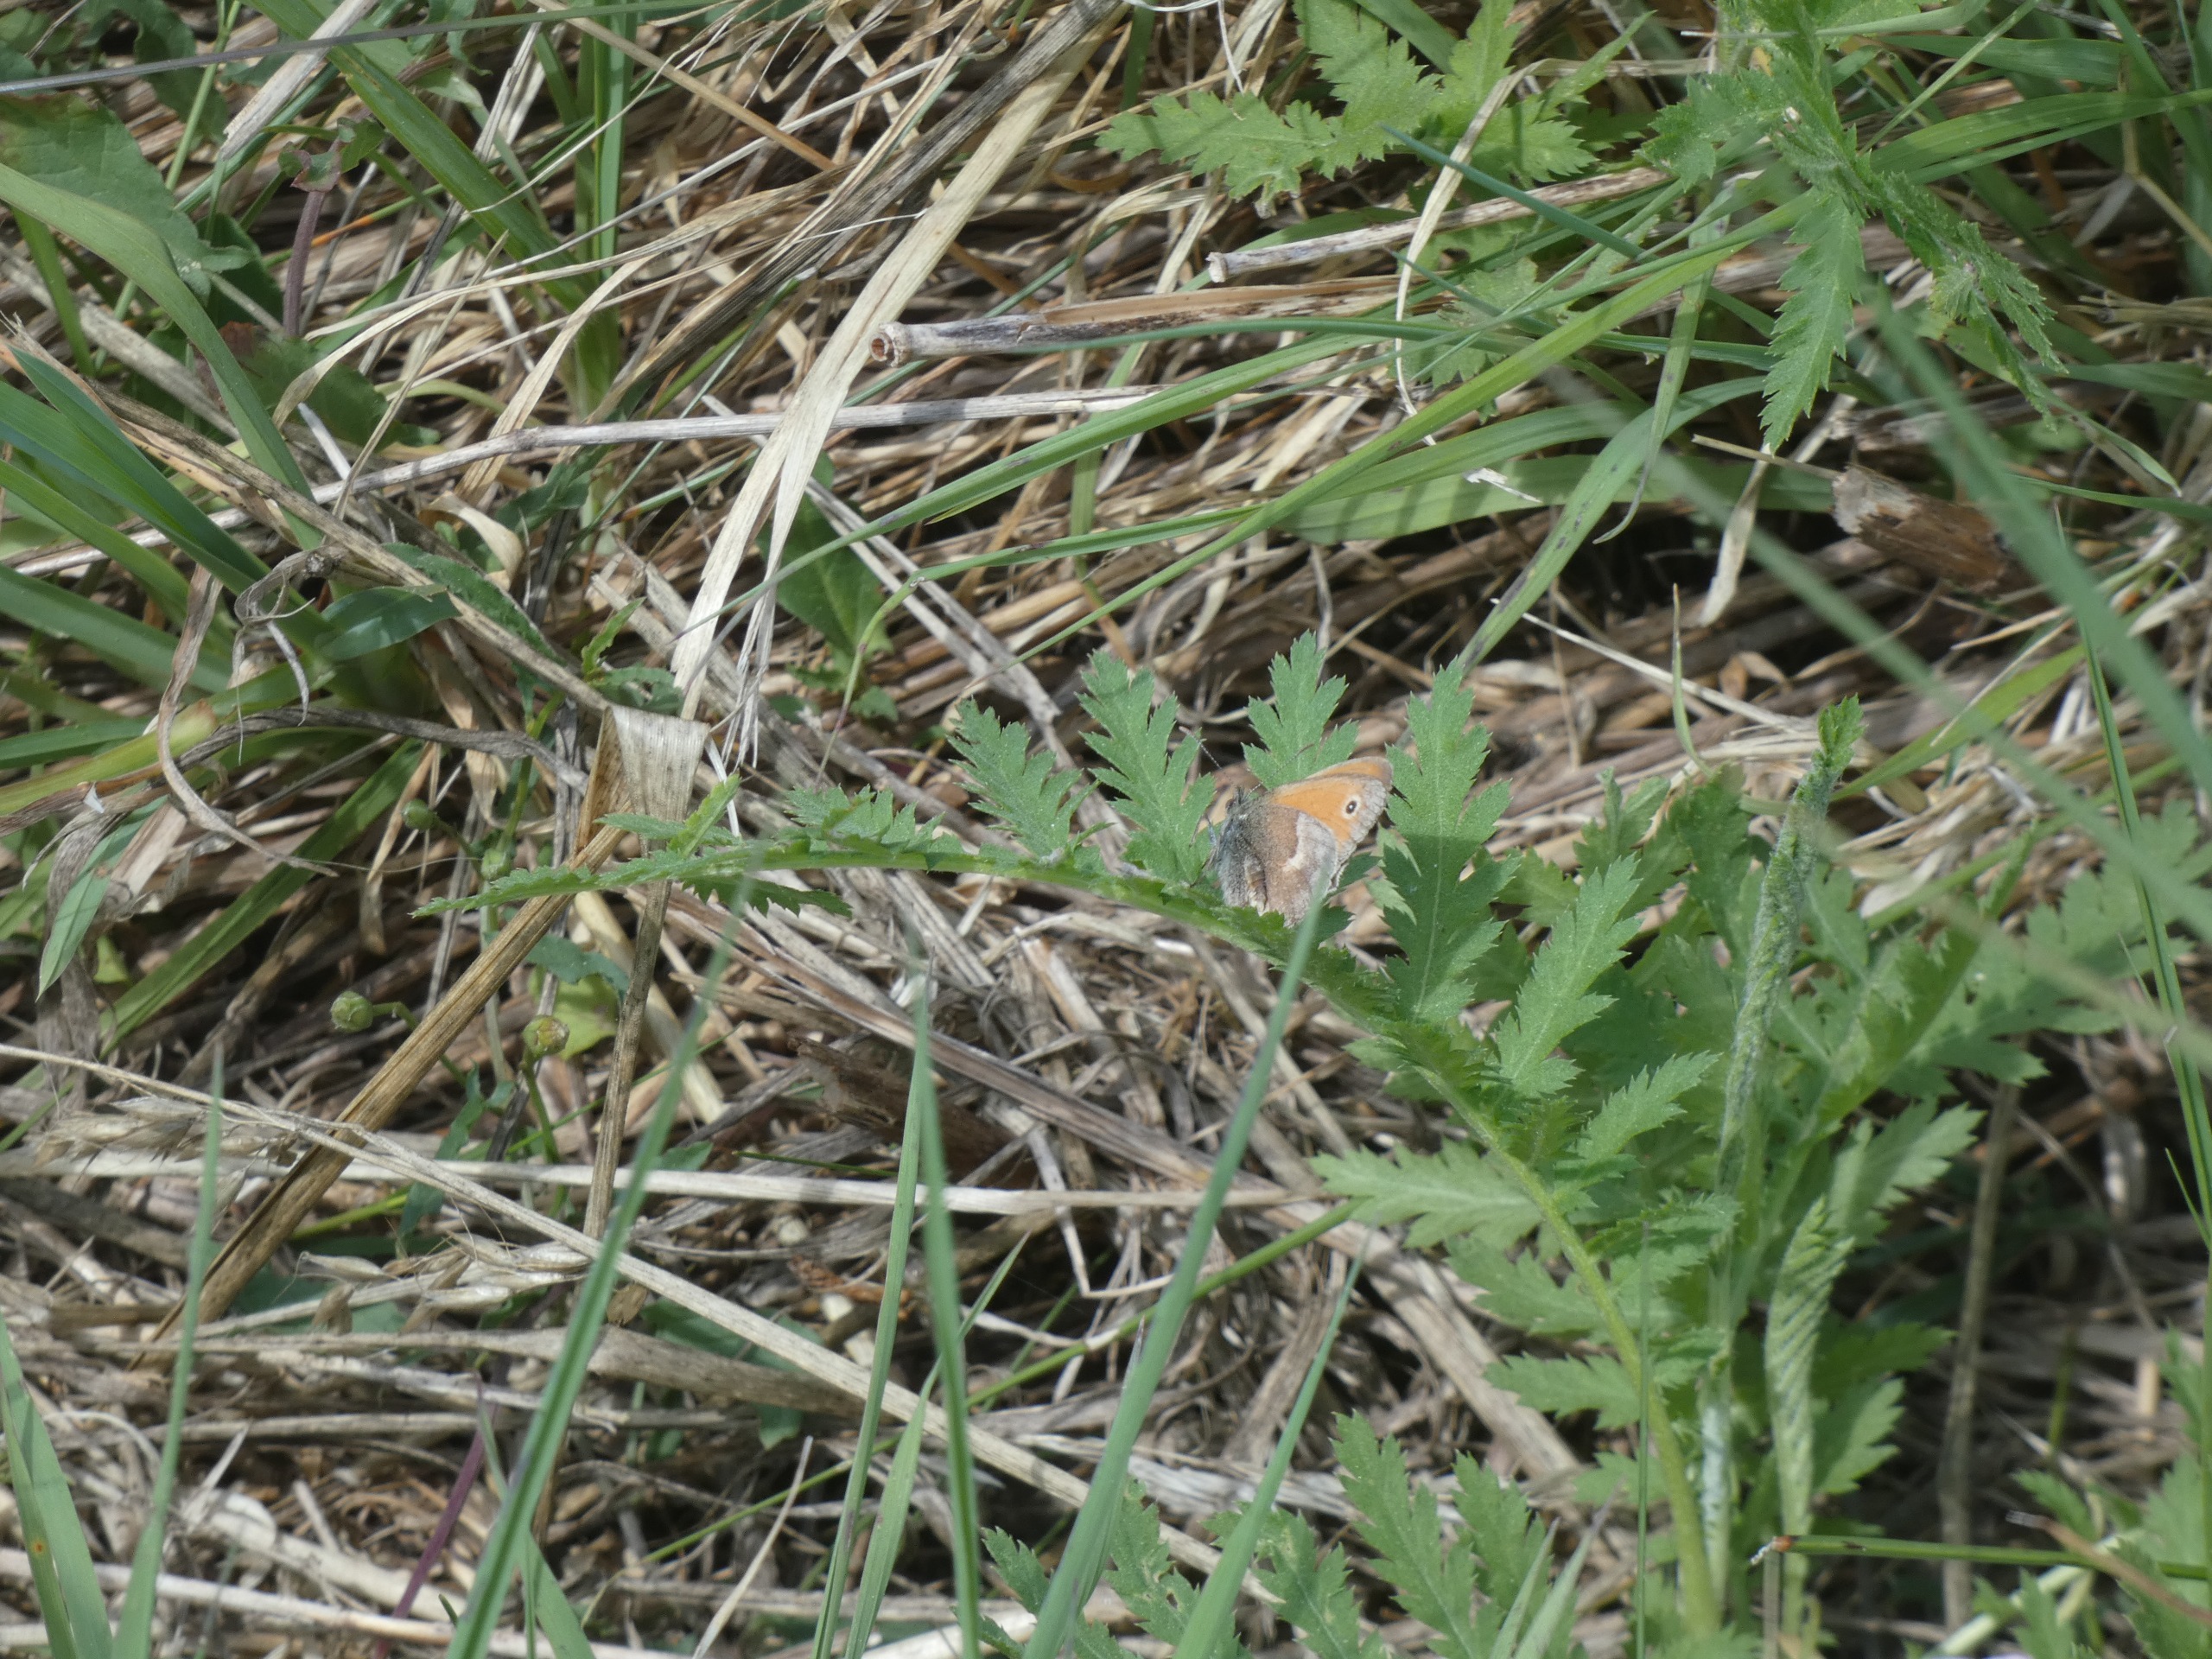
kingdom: Animalia
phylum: Arthropoda
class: Insecta
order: Lepidoptera
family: Nymphalidae
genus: Coenonympha
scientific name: Coenonympha pamphilus
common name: Okkergul randøje
